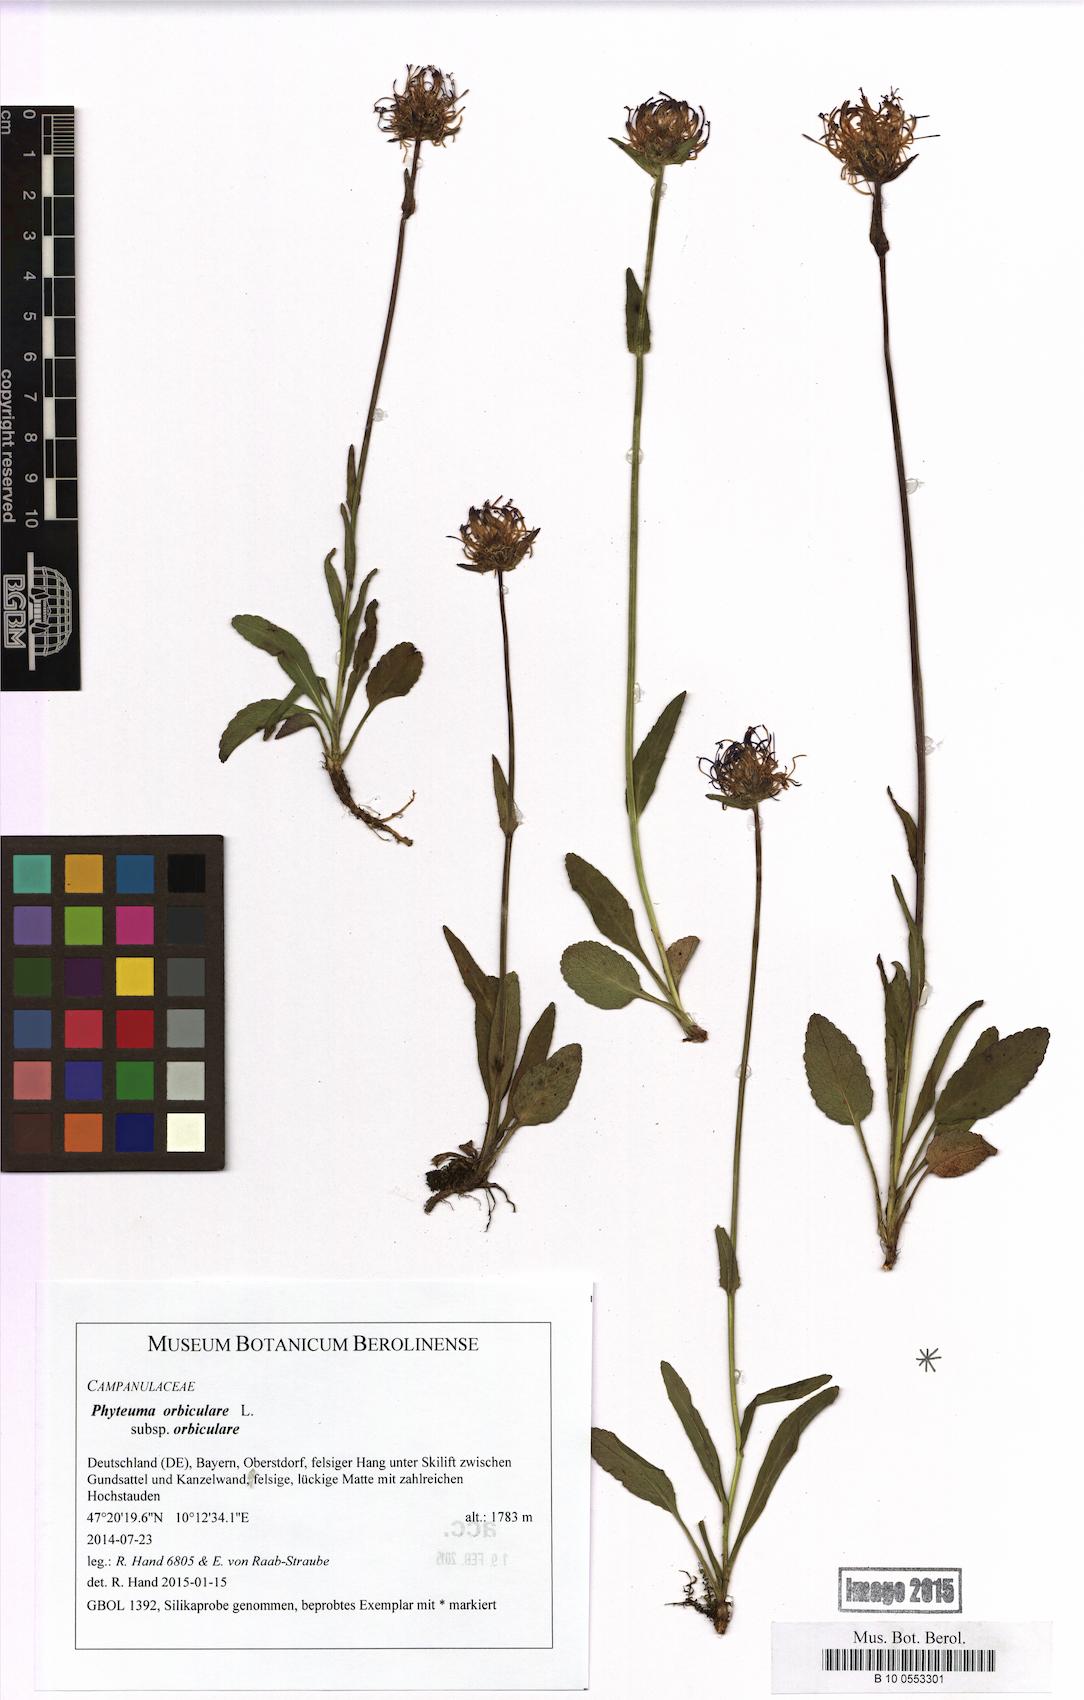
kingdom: Plantae
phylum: Tracheophyta
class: Magnoliopsida
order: Asterales
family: Campanulaceae
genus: Phyteuma
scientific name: Phyteuma orbiculare
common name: Round-headed rampion
